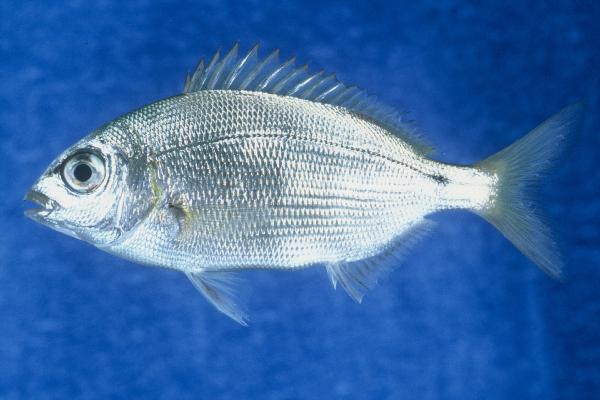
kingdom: Animalia
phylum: Chordata
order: Perciformes
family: Sparidae
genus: Diplodus
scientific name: Diplodus noct
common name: Arabian pinfish
